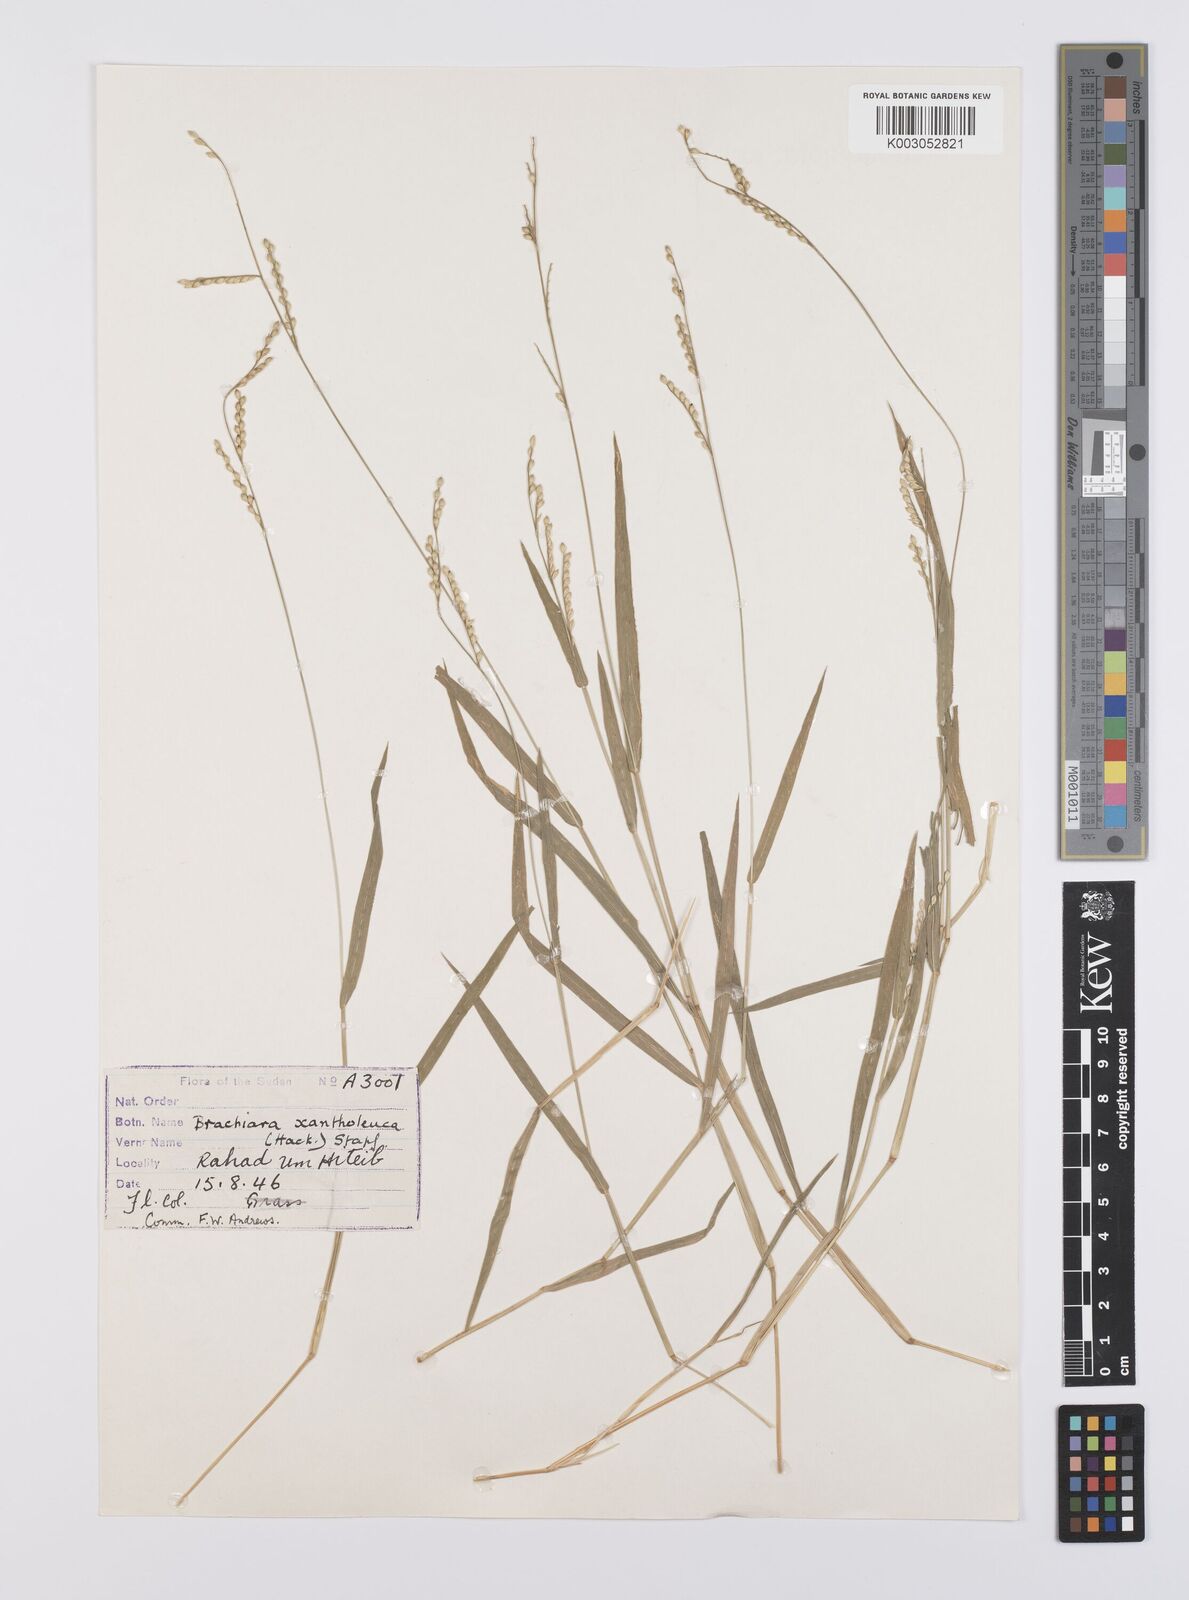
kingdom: Plantae
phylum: Tracheophyta
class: Liliopsida
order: Poales
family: Poaceae
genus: Urochloa
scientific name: Urochloa xantholeuca
